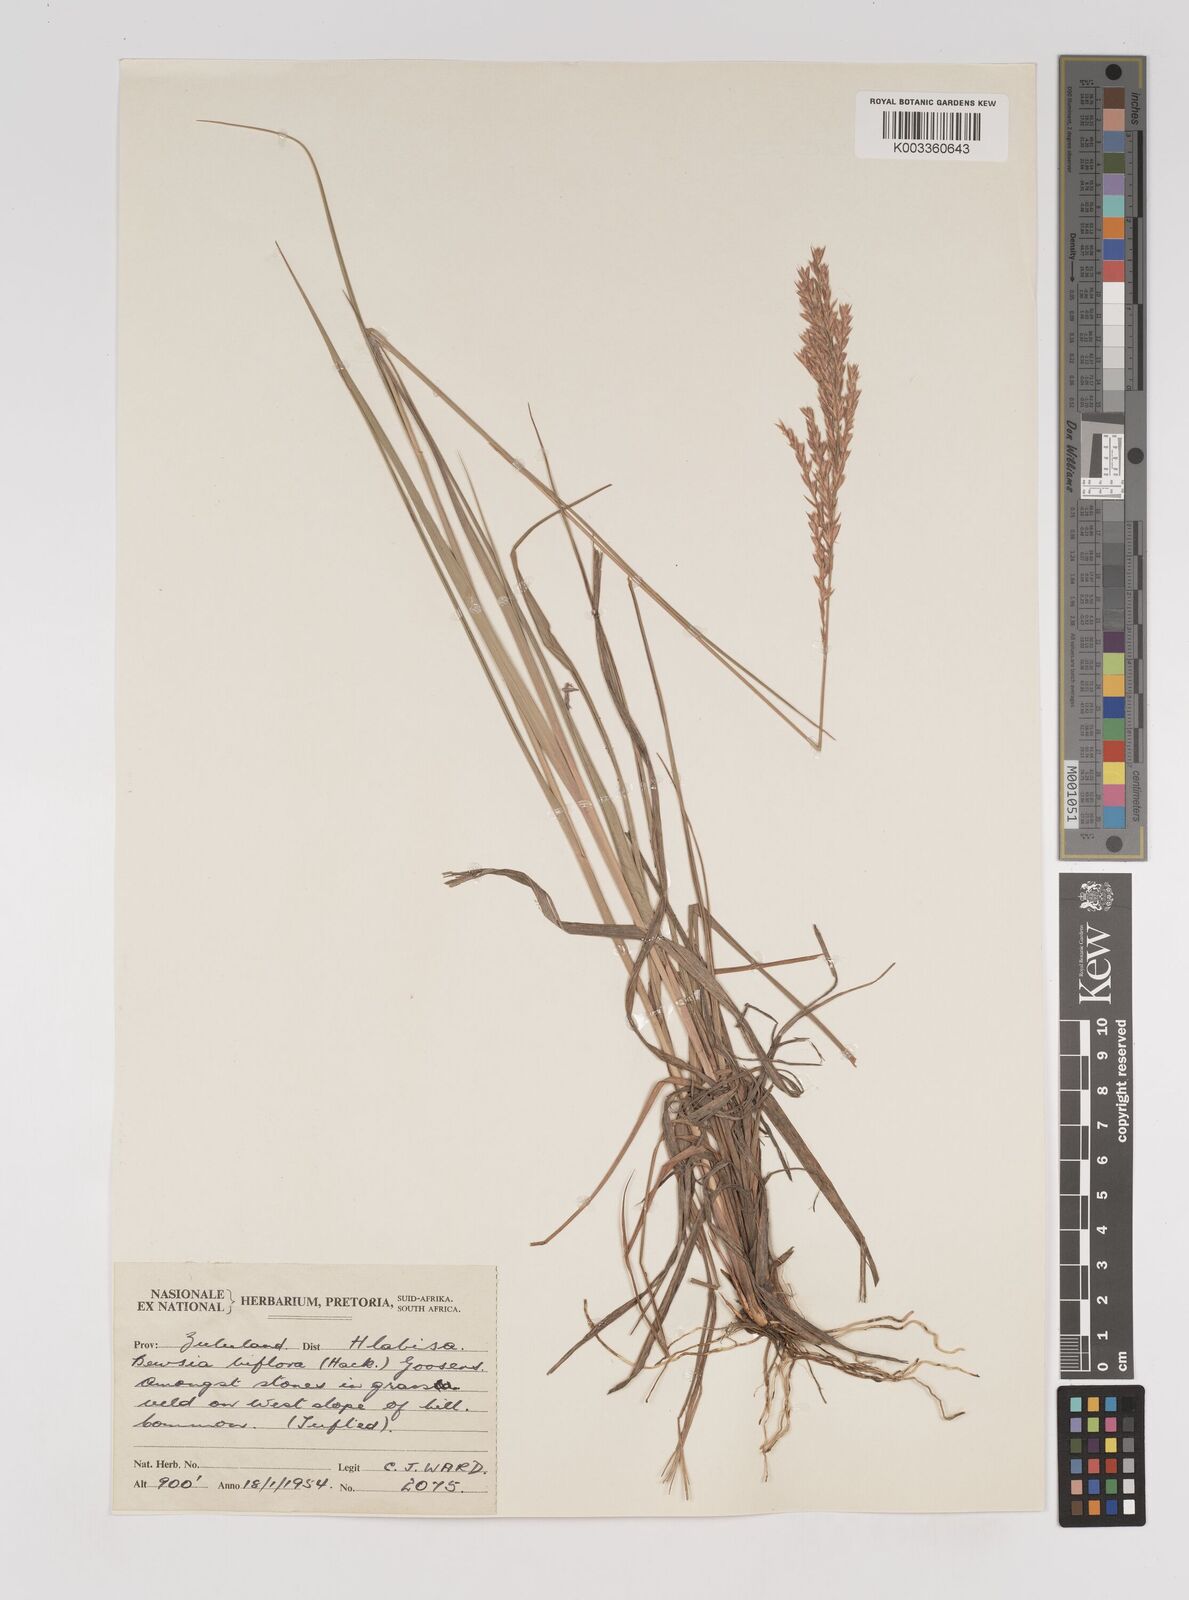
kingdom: Plantae
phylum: Tracheophyta
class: Liliopsida
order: Poales
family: Poaceae
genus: Bewsia
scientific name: Bewsia biflora
